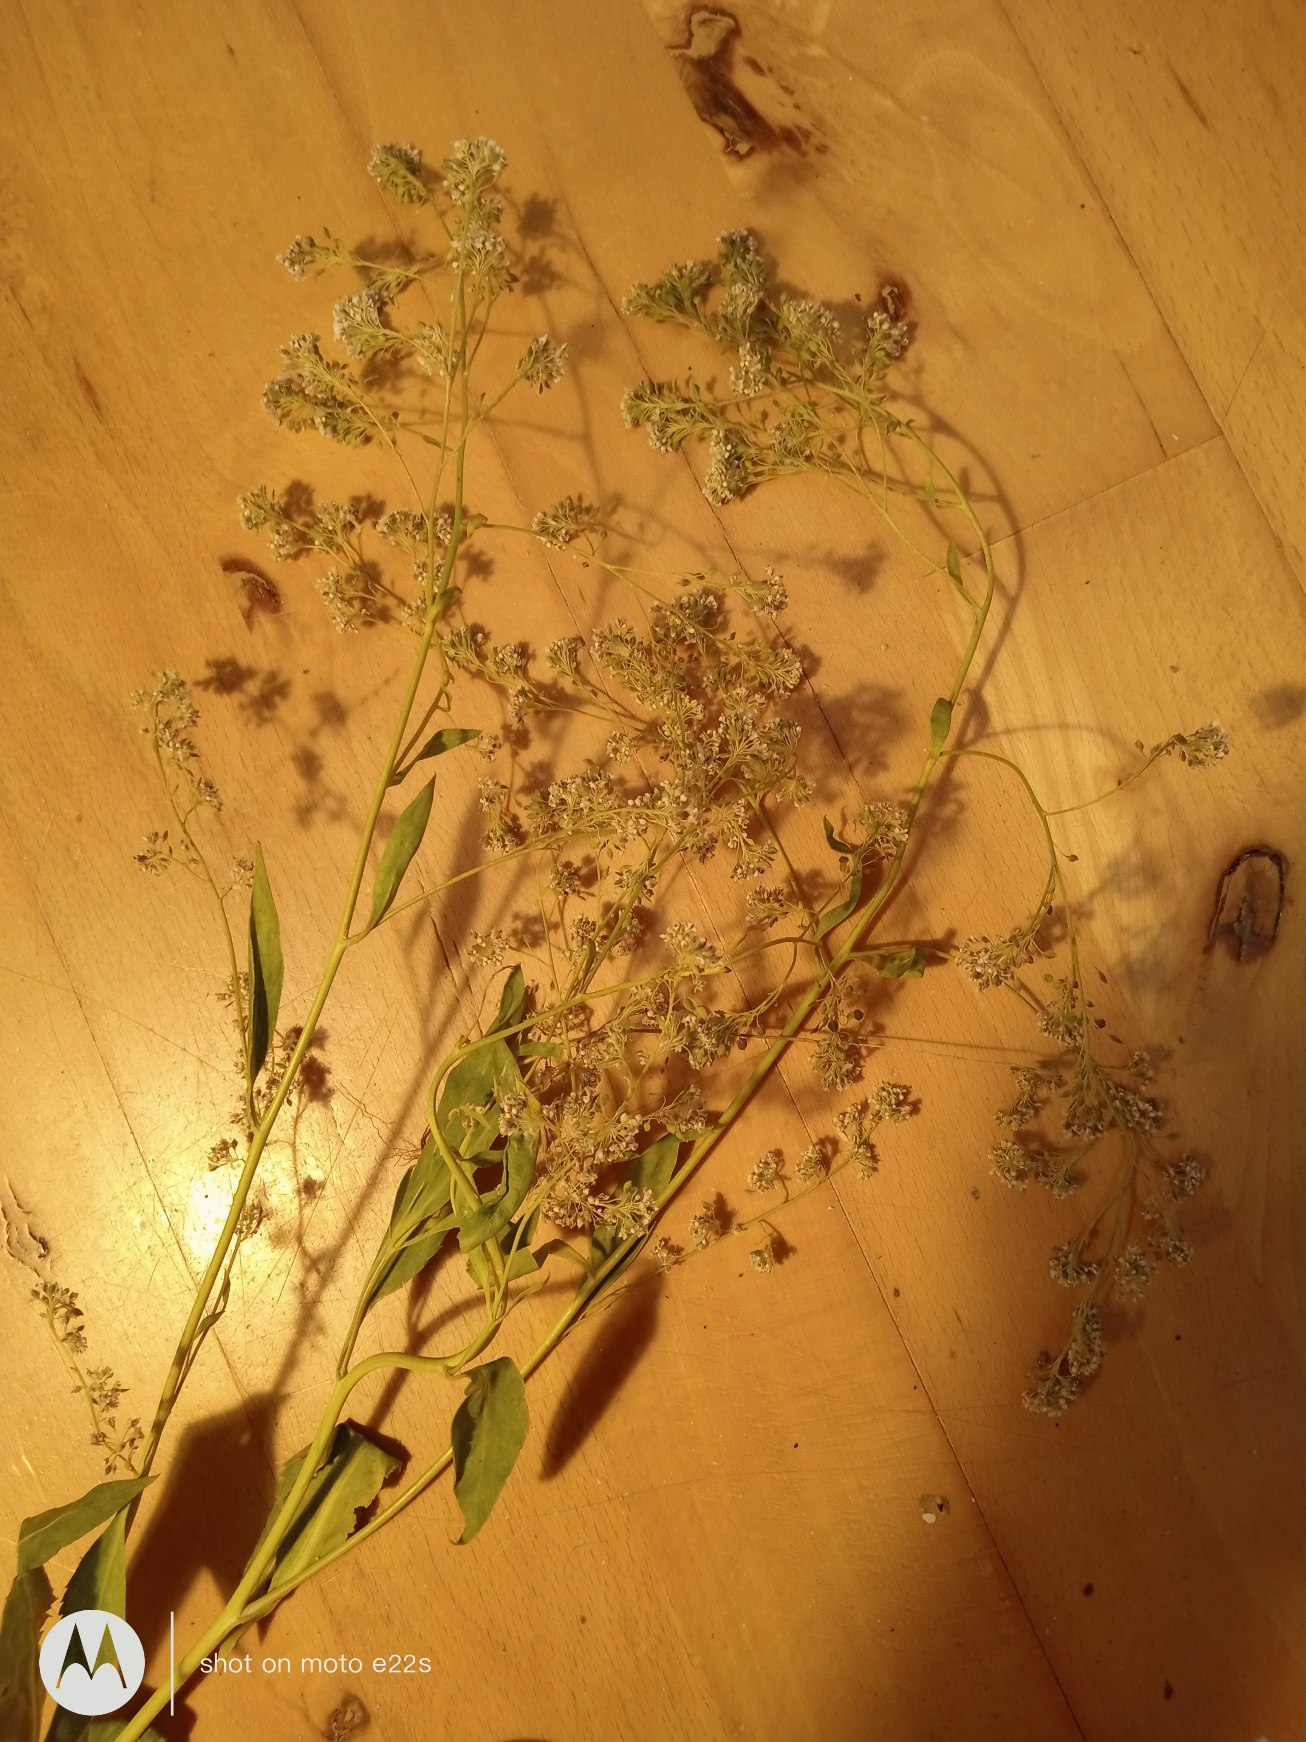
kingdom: Plantae
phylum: Tracheophyta
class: Magnoliopsida
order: Brassicales
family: Brassicaceae
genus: Lepidium
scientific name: Lepidium latifolium
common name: Strand-karse
